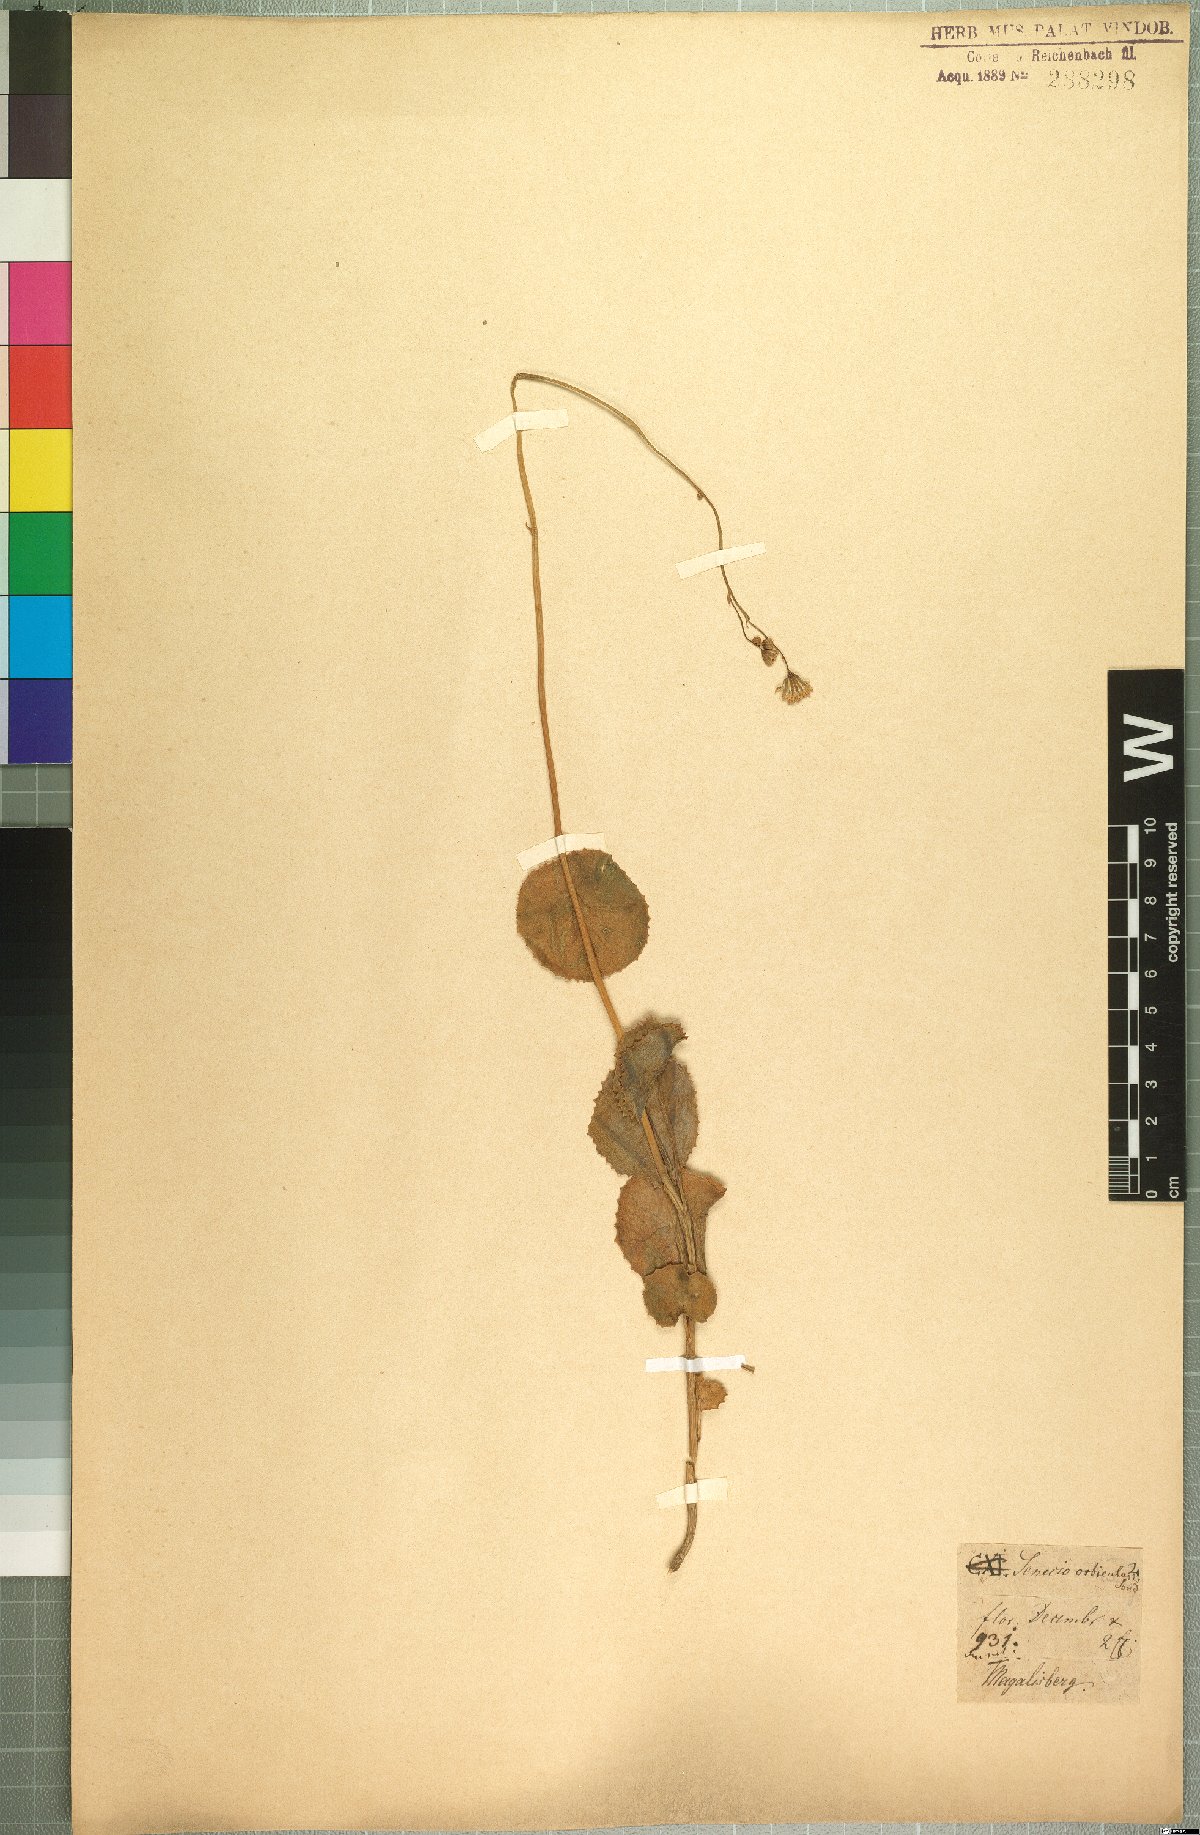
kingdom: Plantae
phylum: Tracheophyta
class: Magnoliopsida
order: Asterales
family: Asteraceae
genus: Senecio
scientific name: Senecio oxyriifolius
